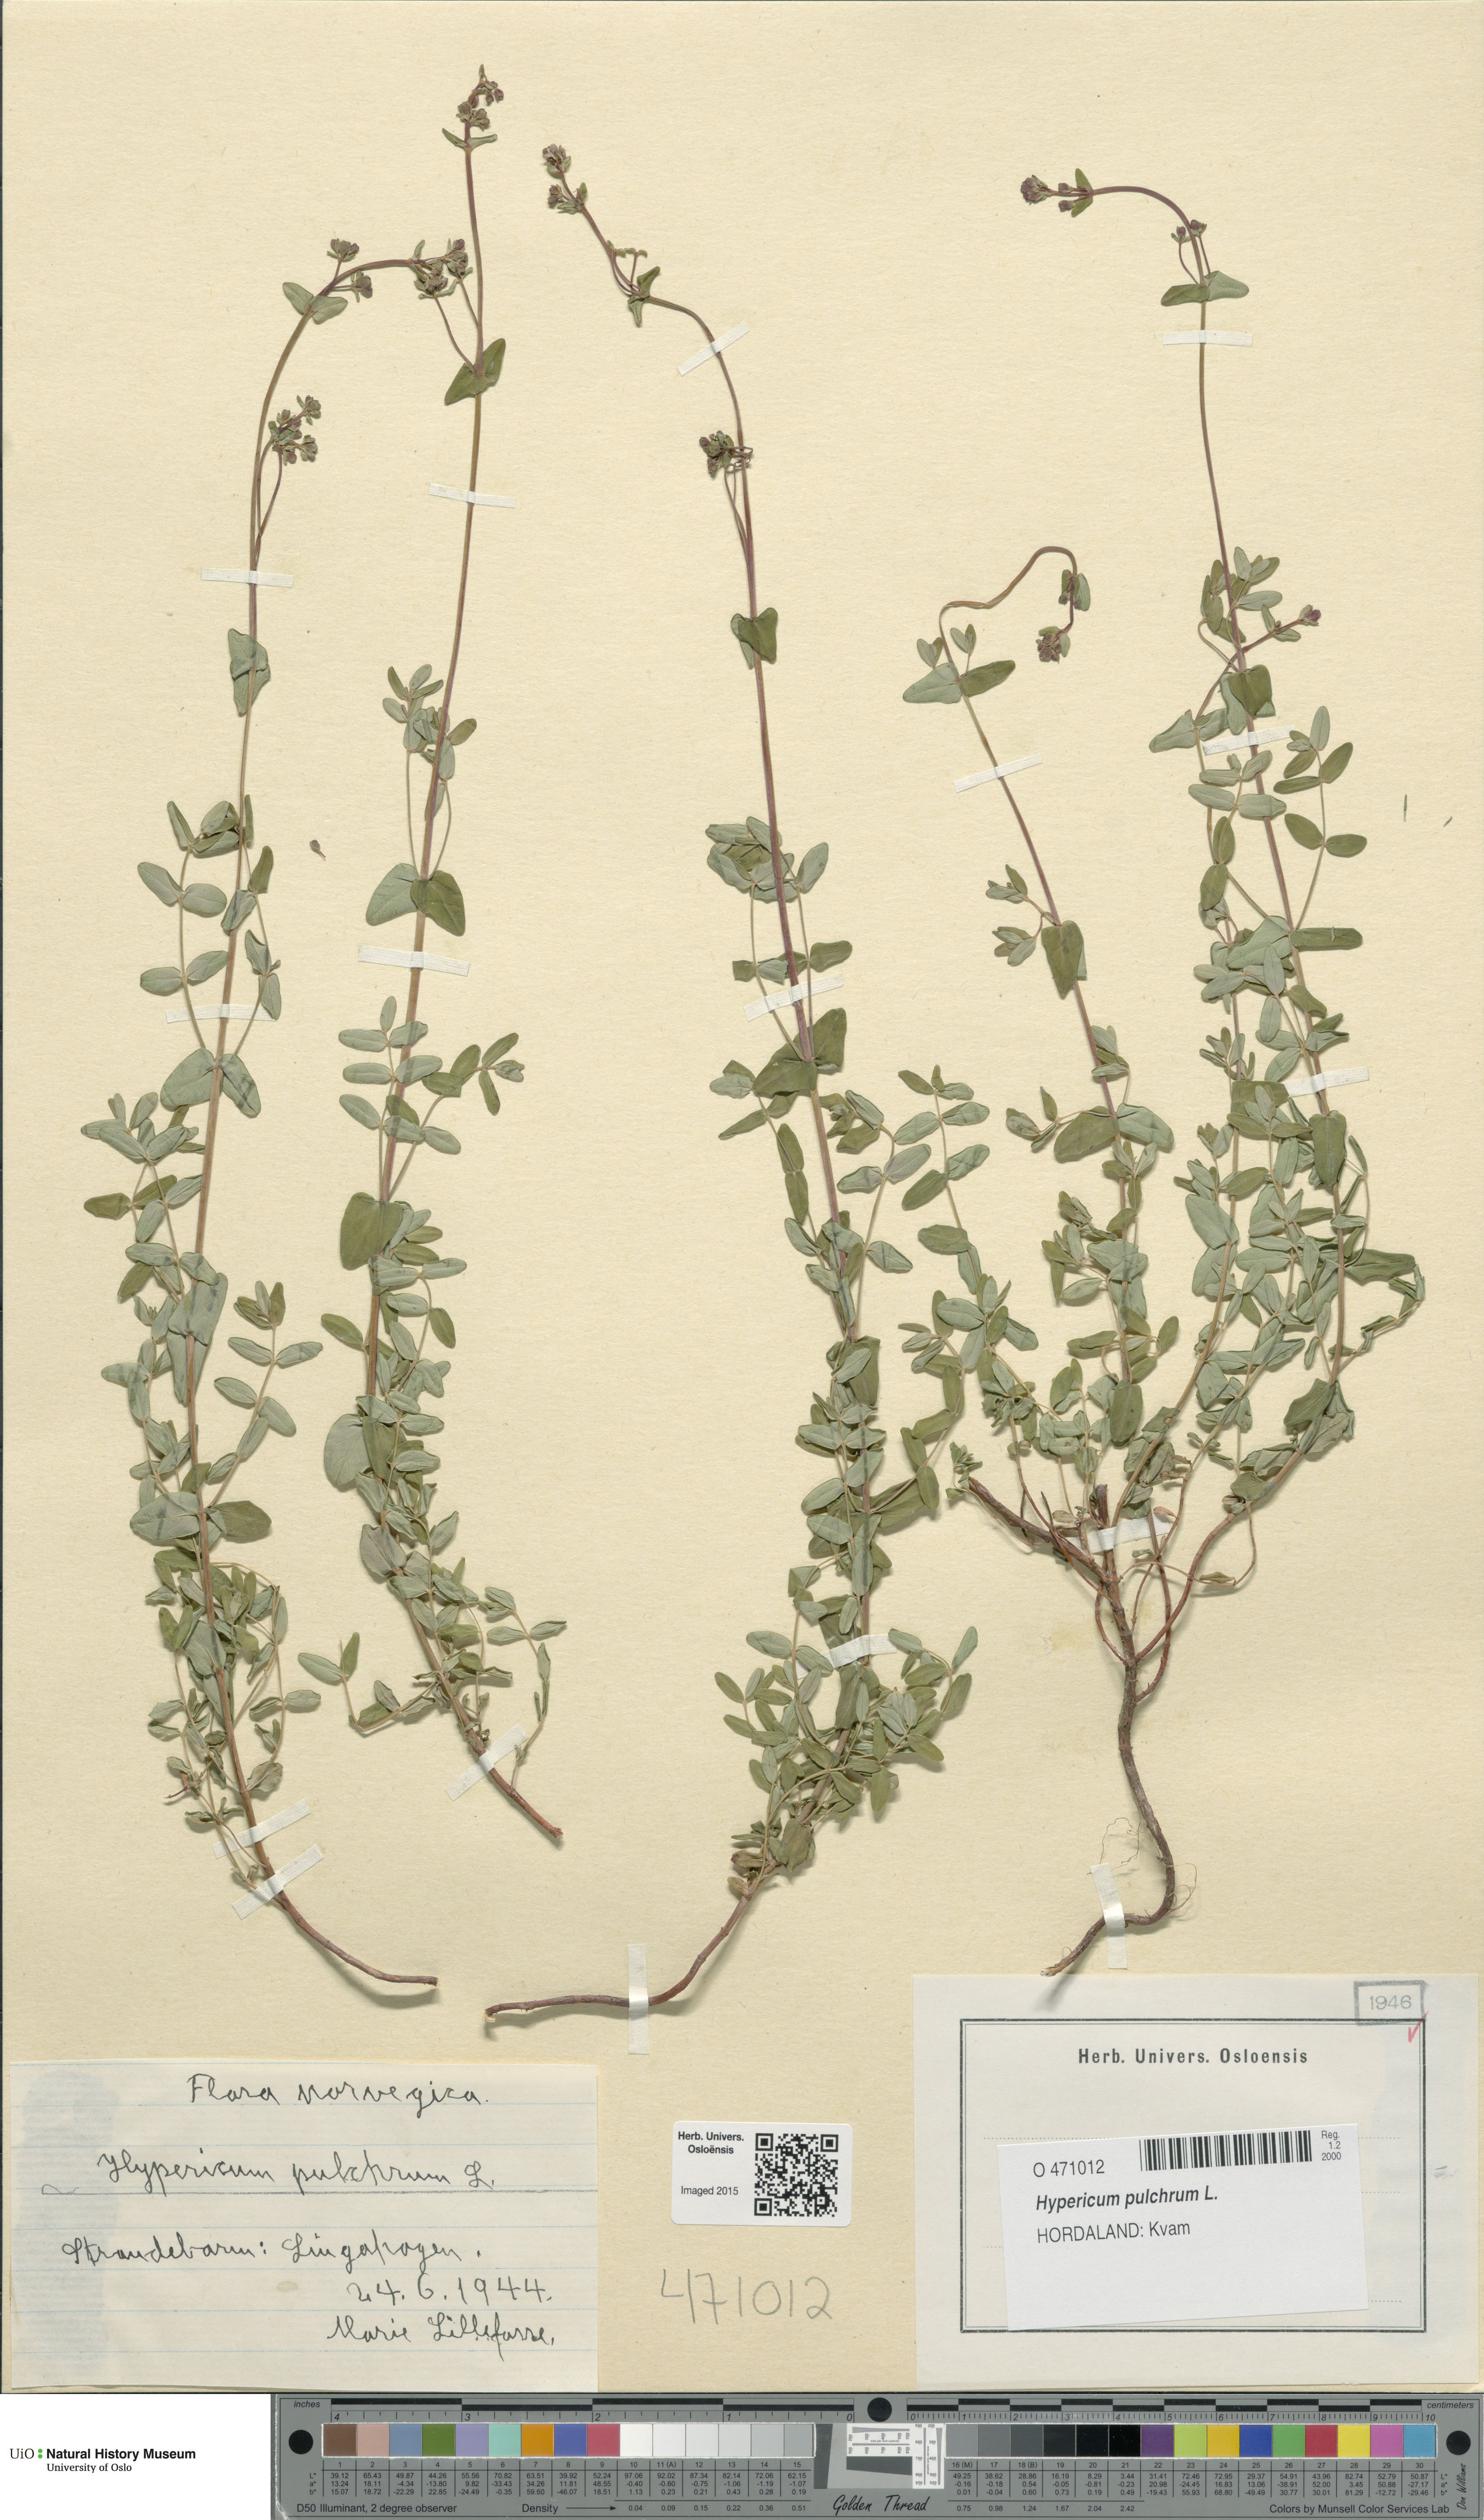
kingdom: Plantae
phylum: Tracheophyta
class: Magnoliopsida
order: Malpighiales
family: Hypericaceae
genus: Hypericum
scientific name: Hypericum pulchrum
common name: Slender st. john's-wort
